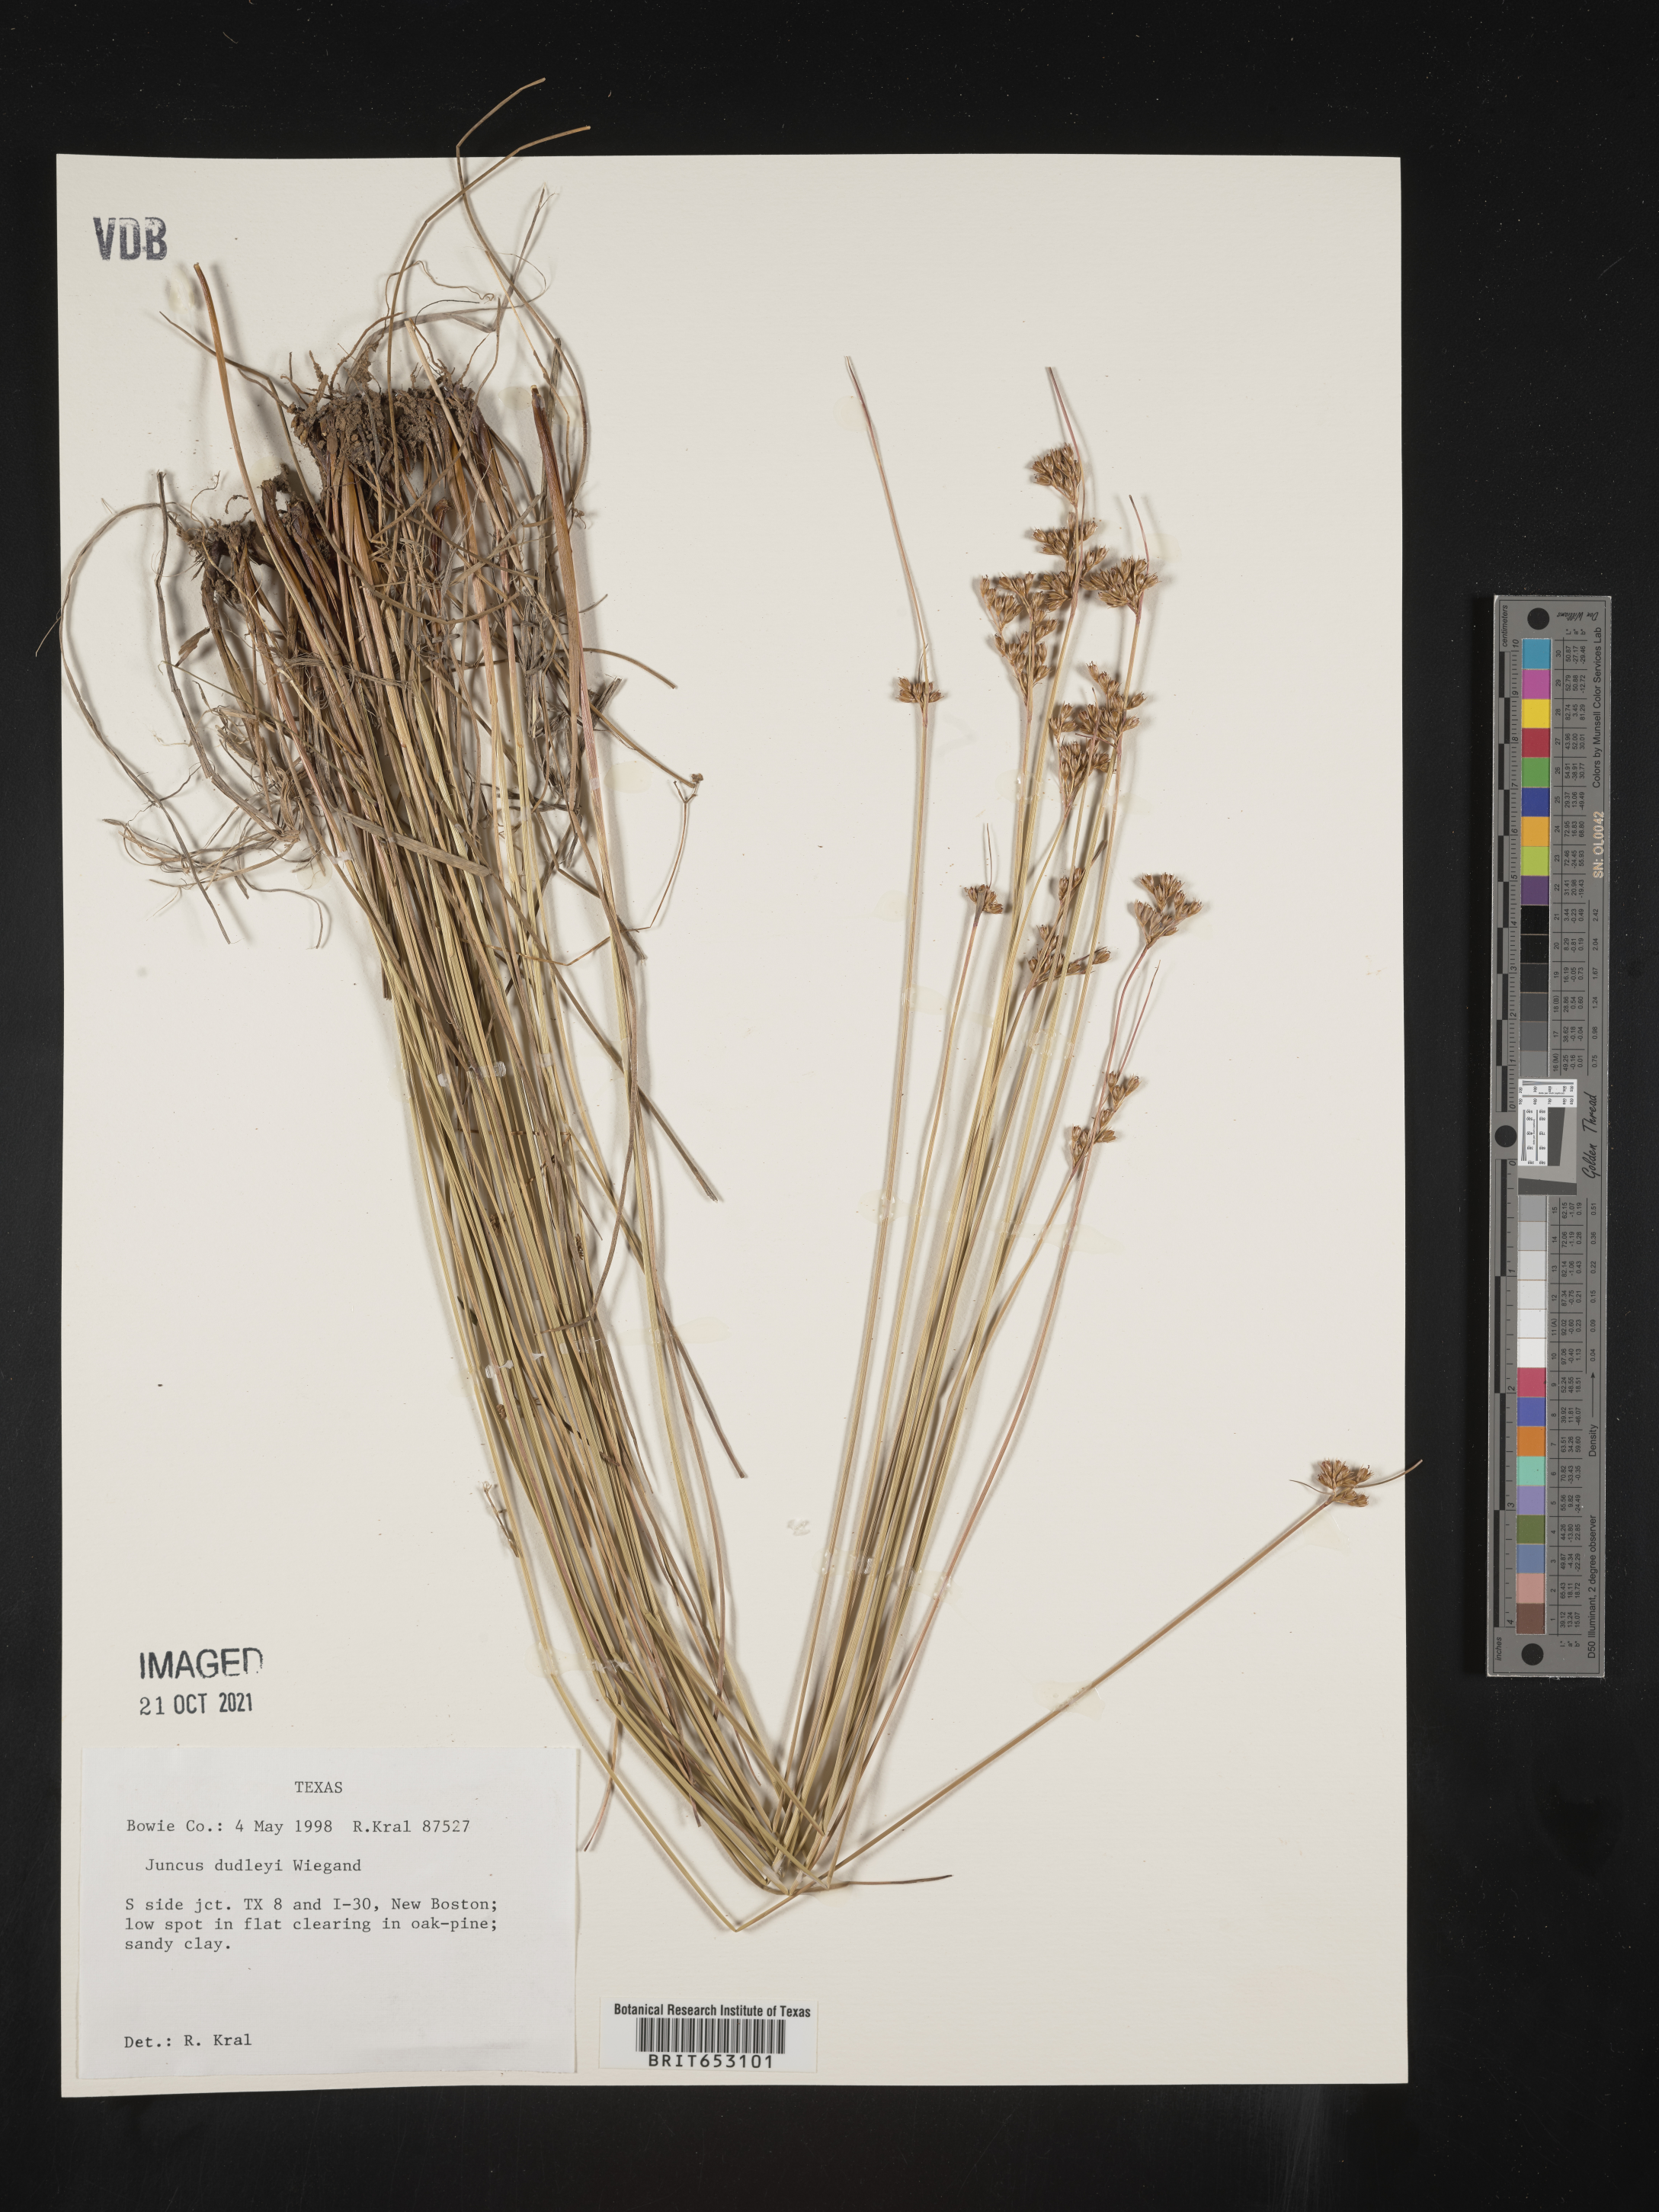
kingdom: Plantae
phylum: Tracheophyta
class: Liliopsida
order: Poales
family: Juncaceae
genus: Juncus
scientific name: Juncus dudleyi
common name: Dudley's rush
